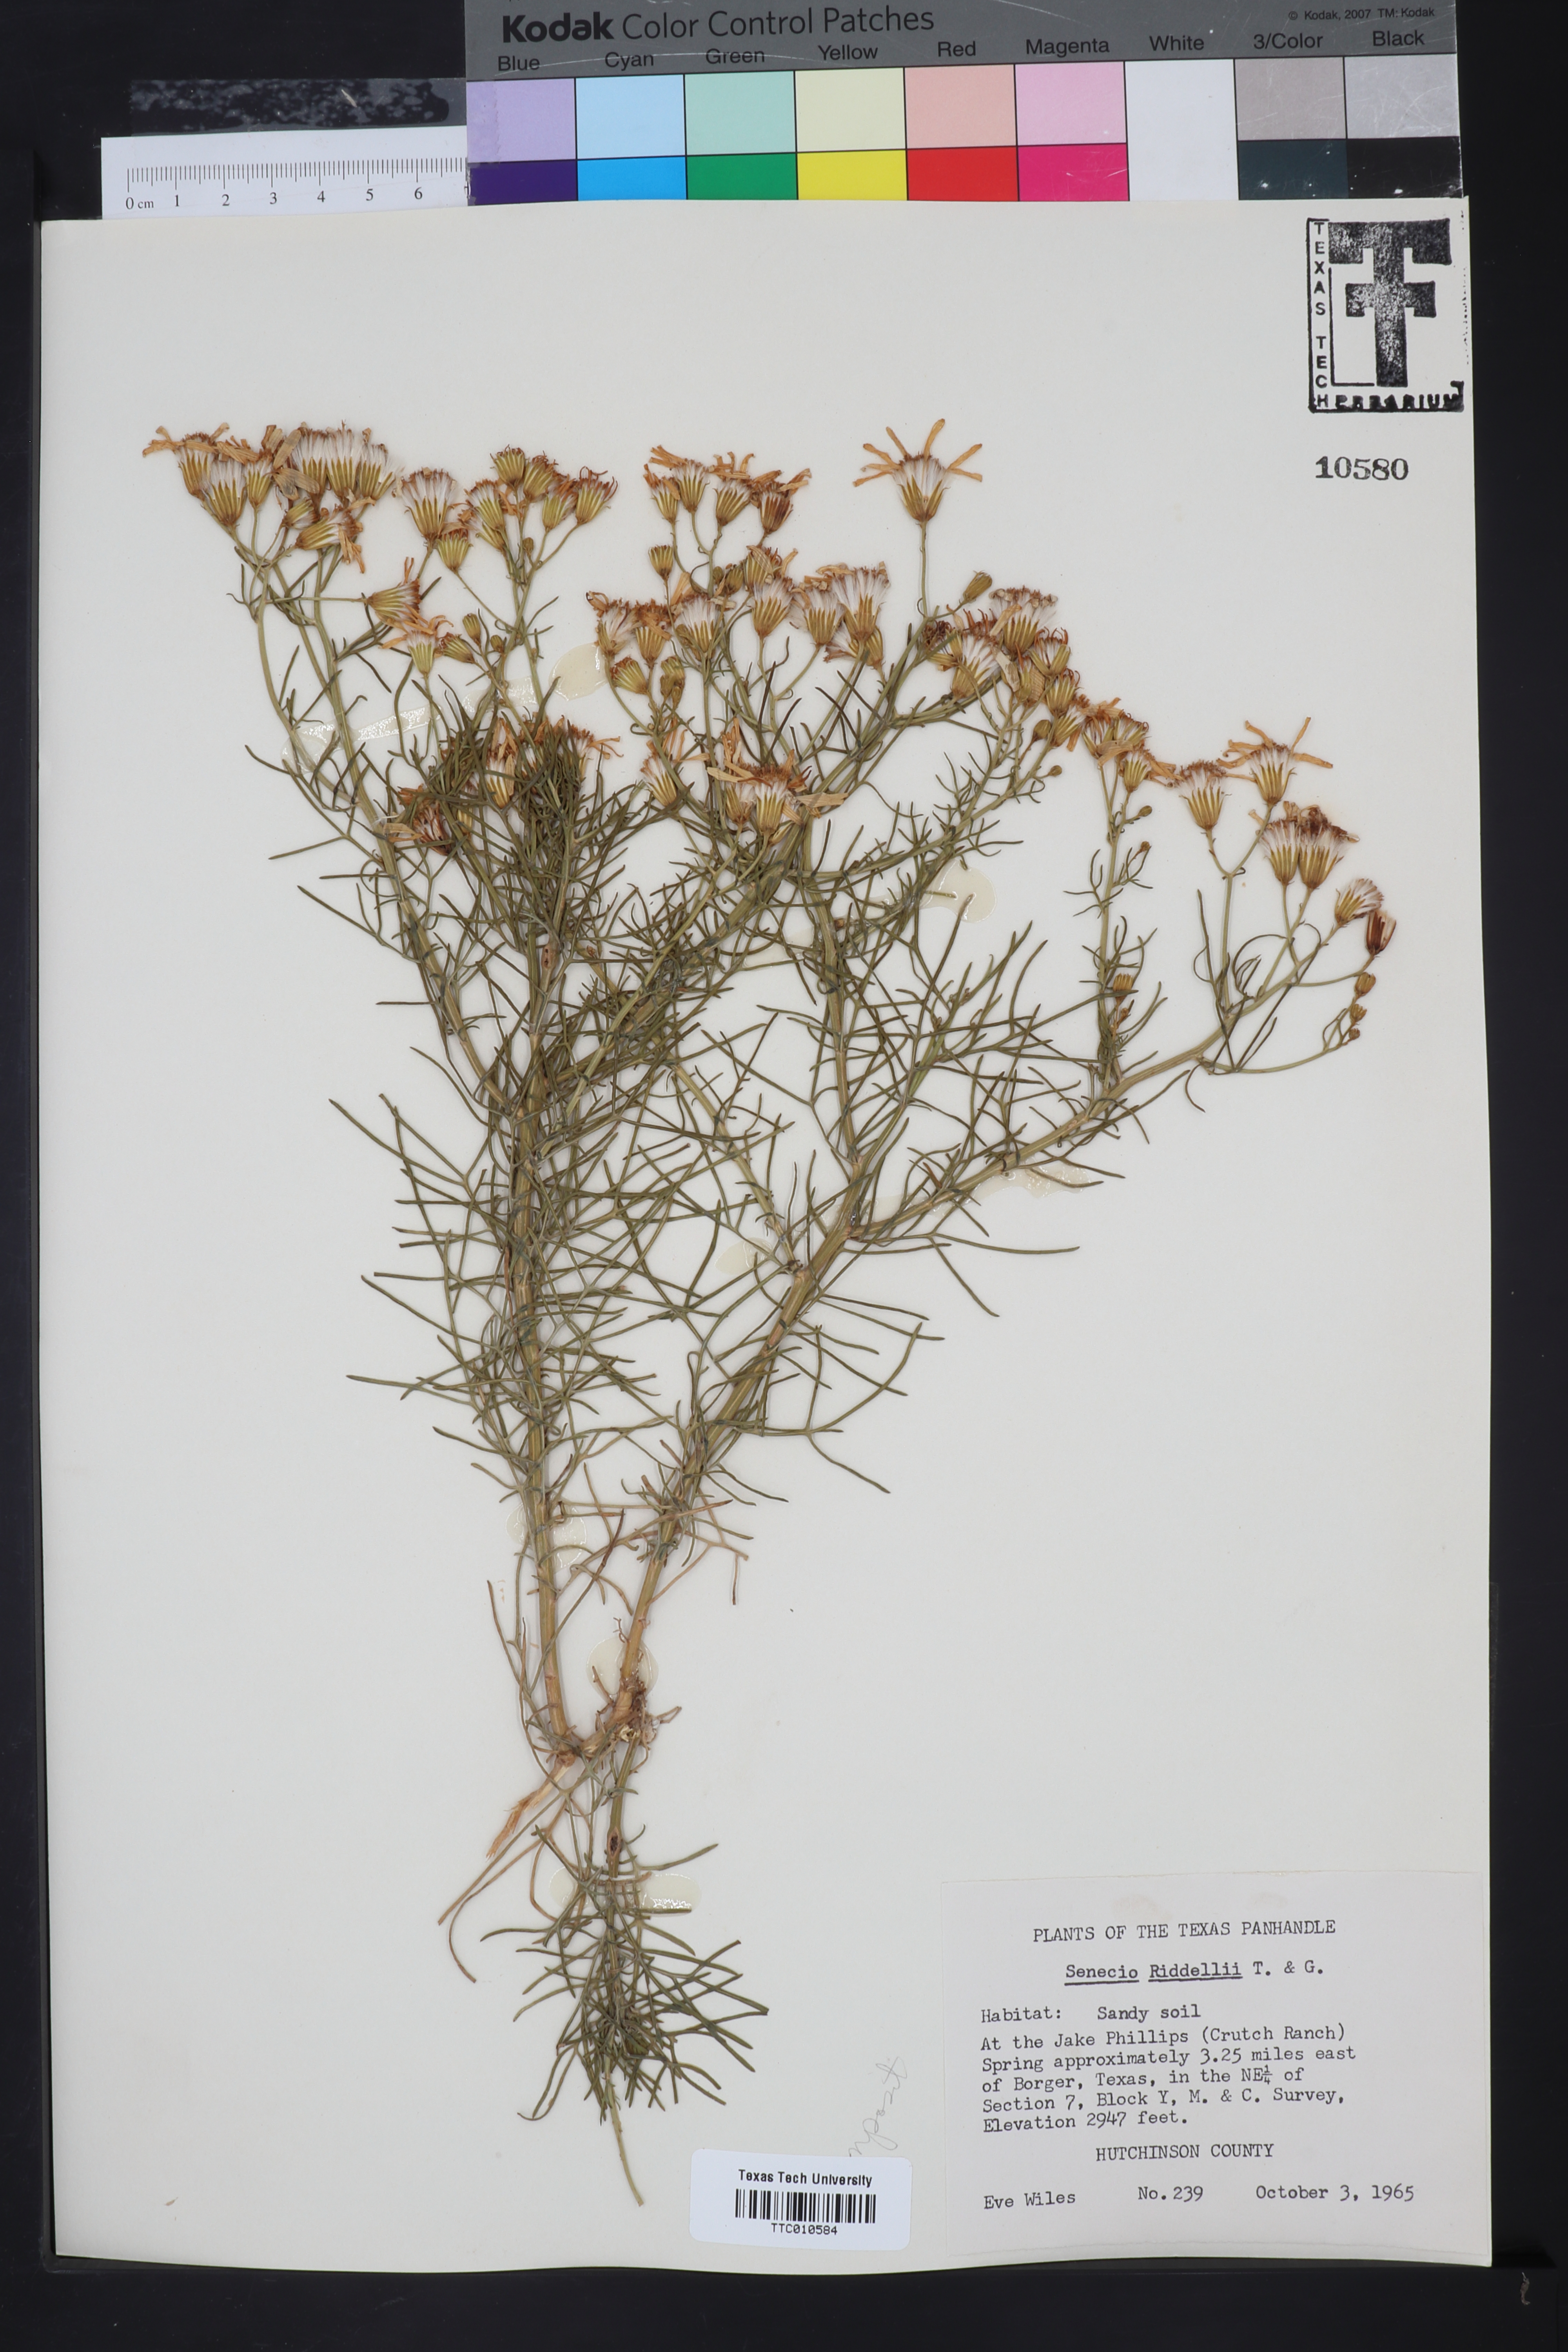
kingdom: Plantae
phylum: Tracheophyta
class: Magnoliopsida
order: Asterales
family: Asteraceae
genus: Senecio
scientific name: Senecio riddellii
